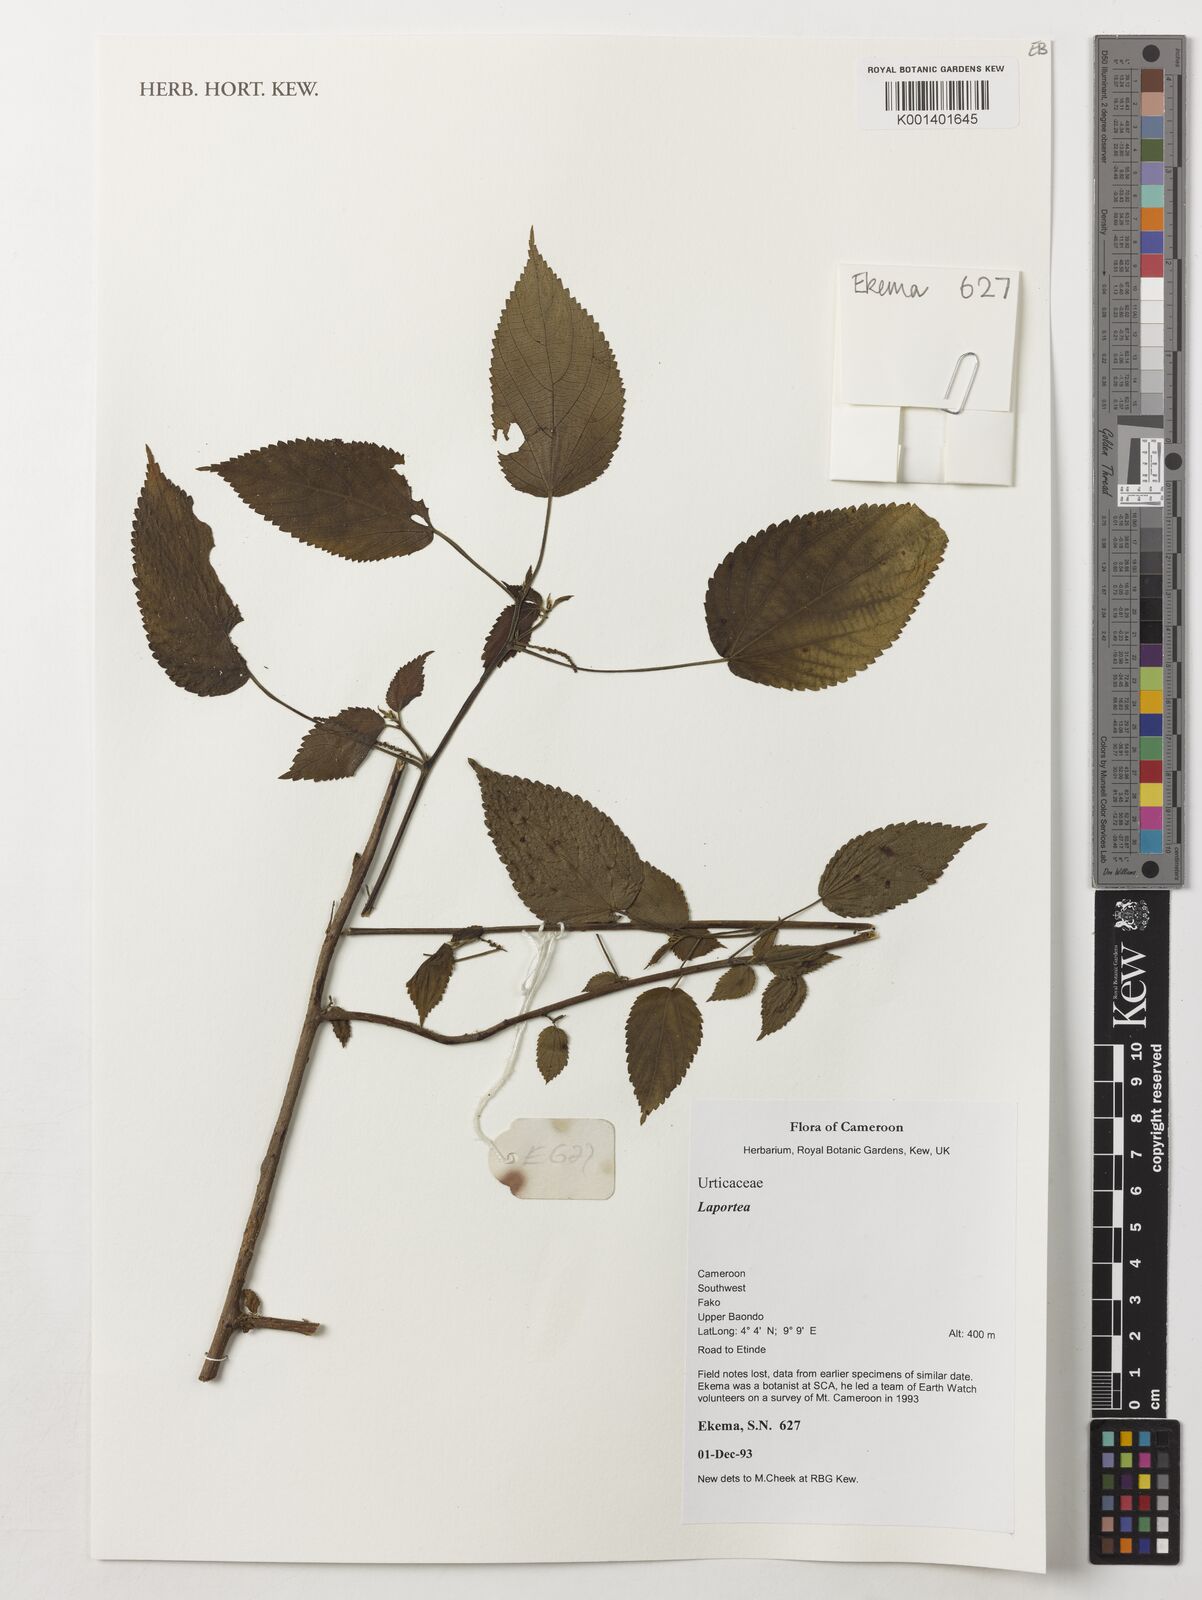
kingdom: Plantae
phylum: Tracheophyta
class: Magnoliopsida
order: Rosales
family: Urticaceae
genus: Laportea
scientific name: Laportea
